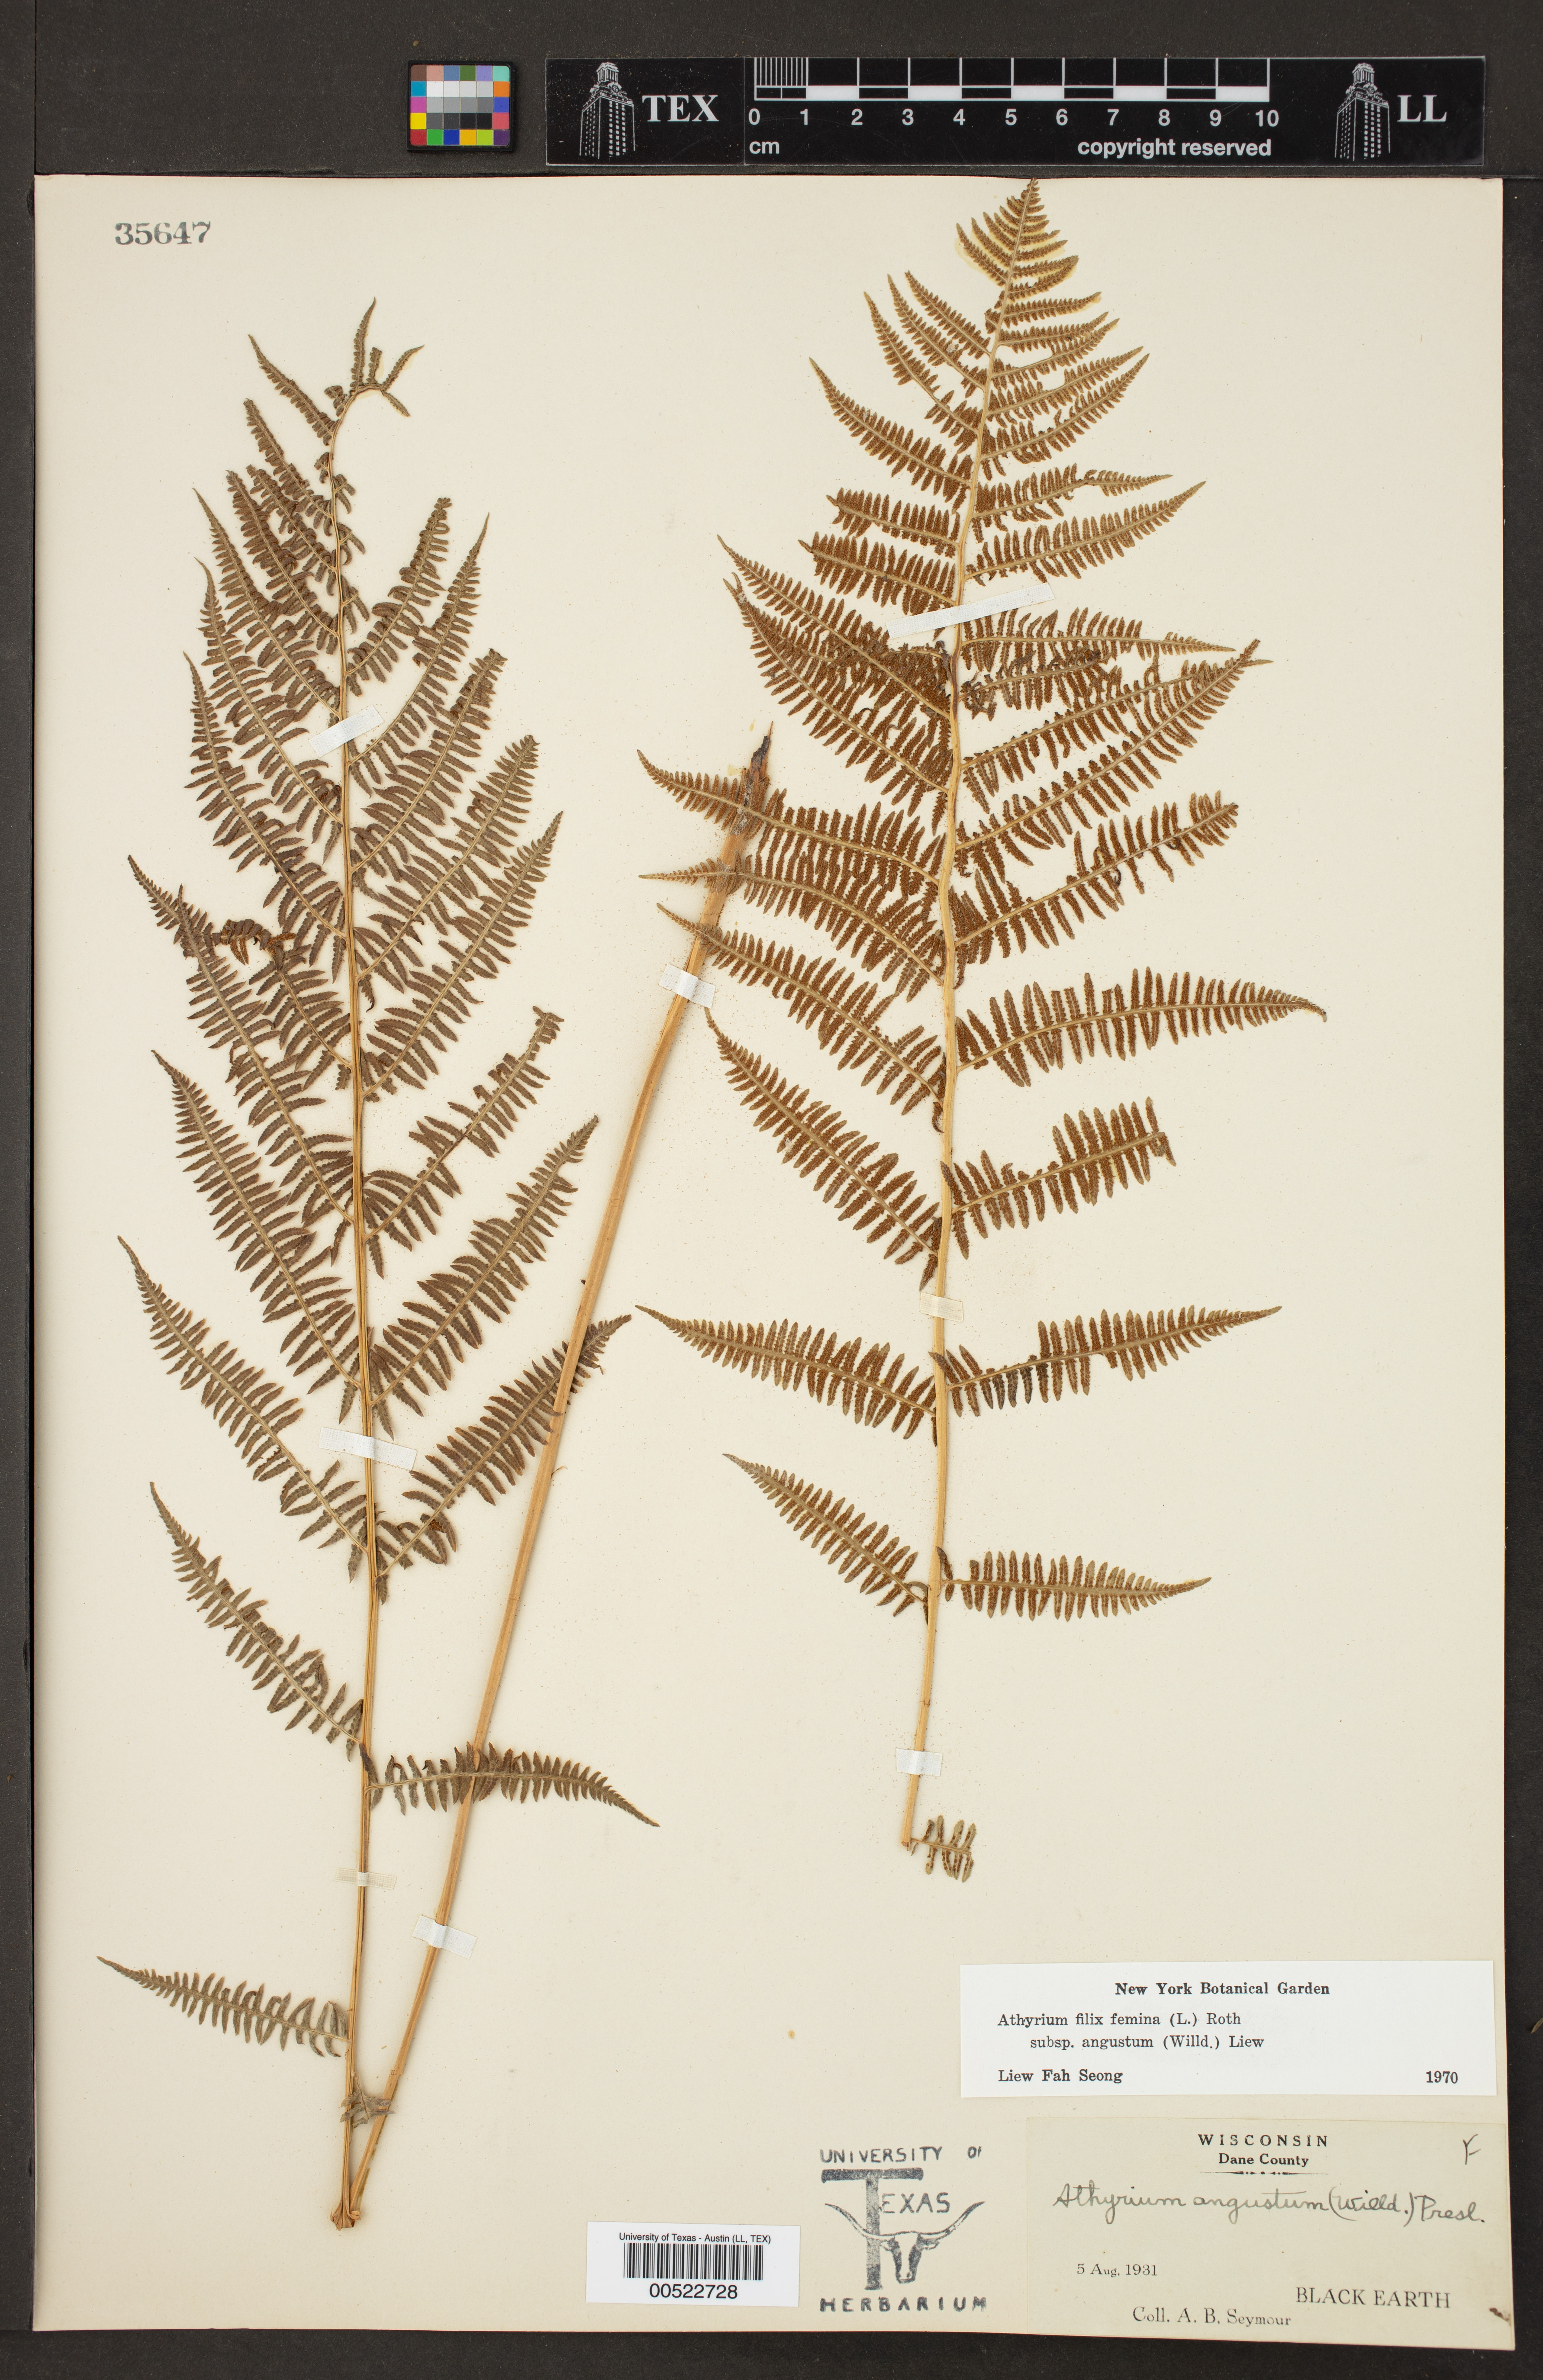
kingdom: Plantae
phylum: Tracheophyta
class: Polypodiopsida
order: Polypodiales
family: Athyriaceae
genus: Athyrium
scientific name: Athyrium angustum
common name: Northern lady fern
